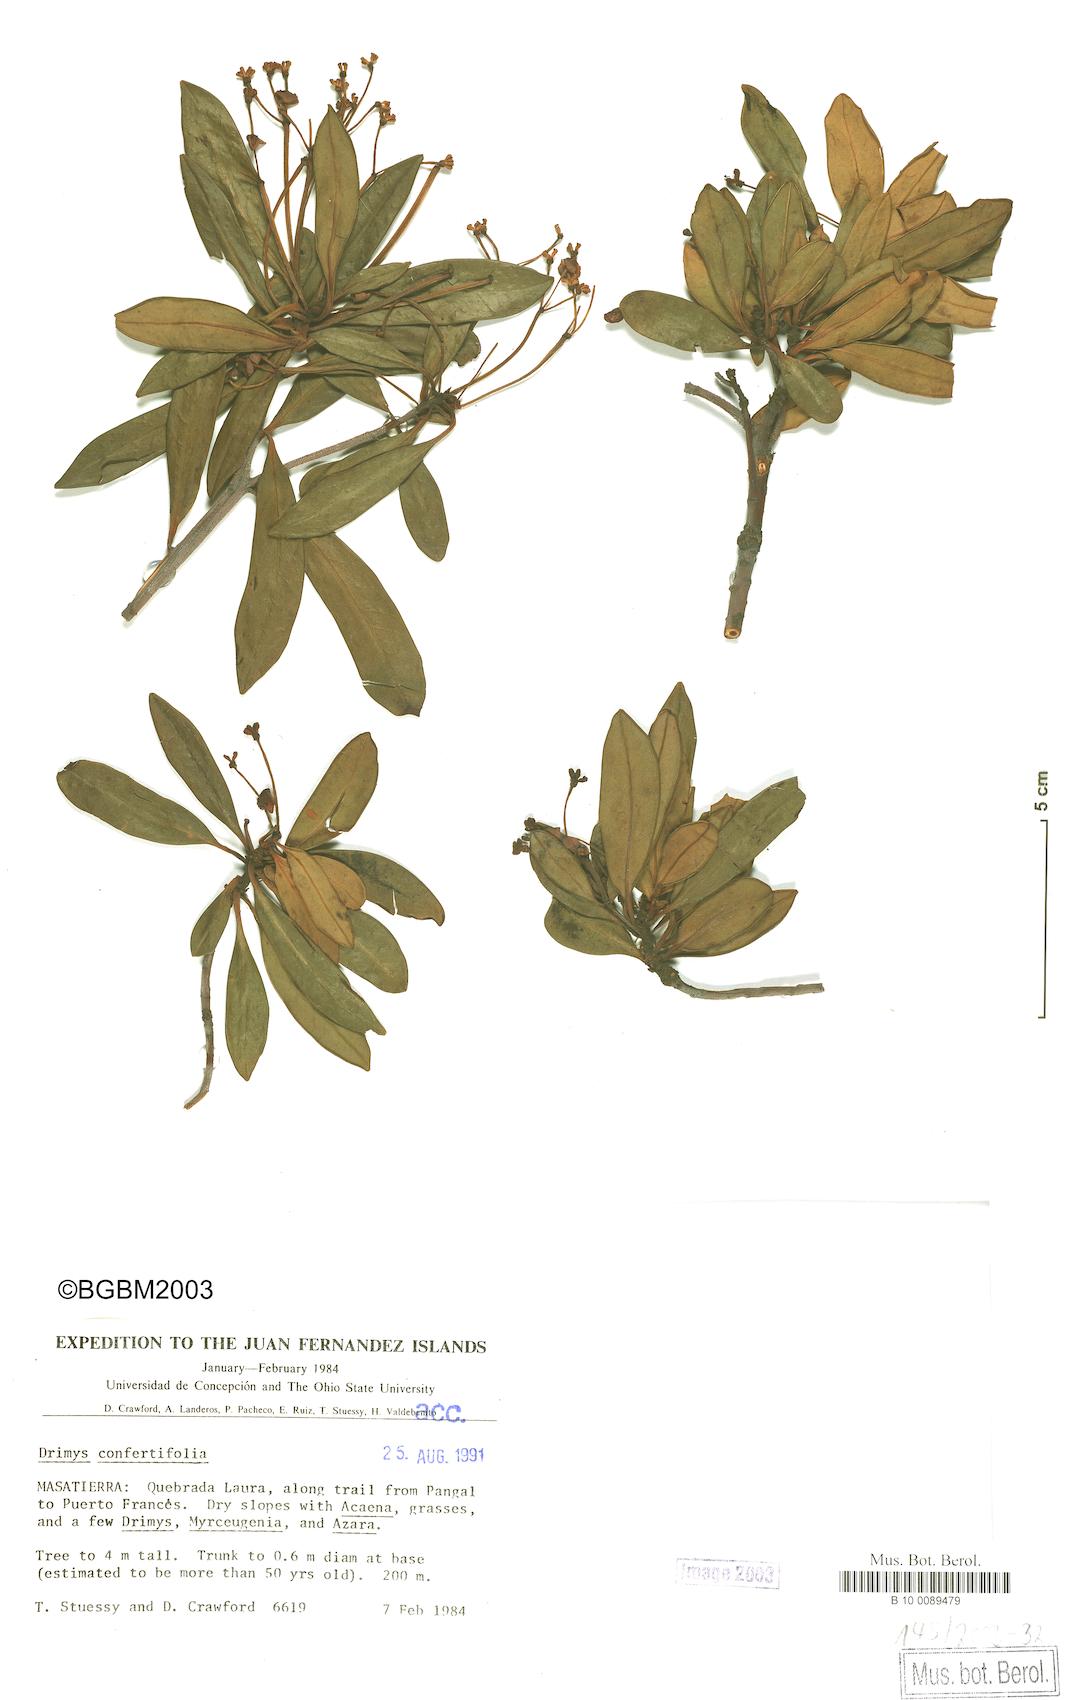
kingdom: Plantae
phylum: Tracheophyta
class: Magnoliopsida
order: Canellales
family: Winteraceae
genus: Drimys
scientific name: Drimys confertiflora
